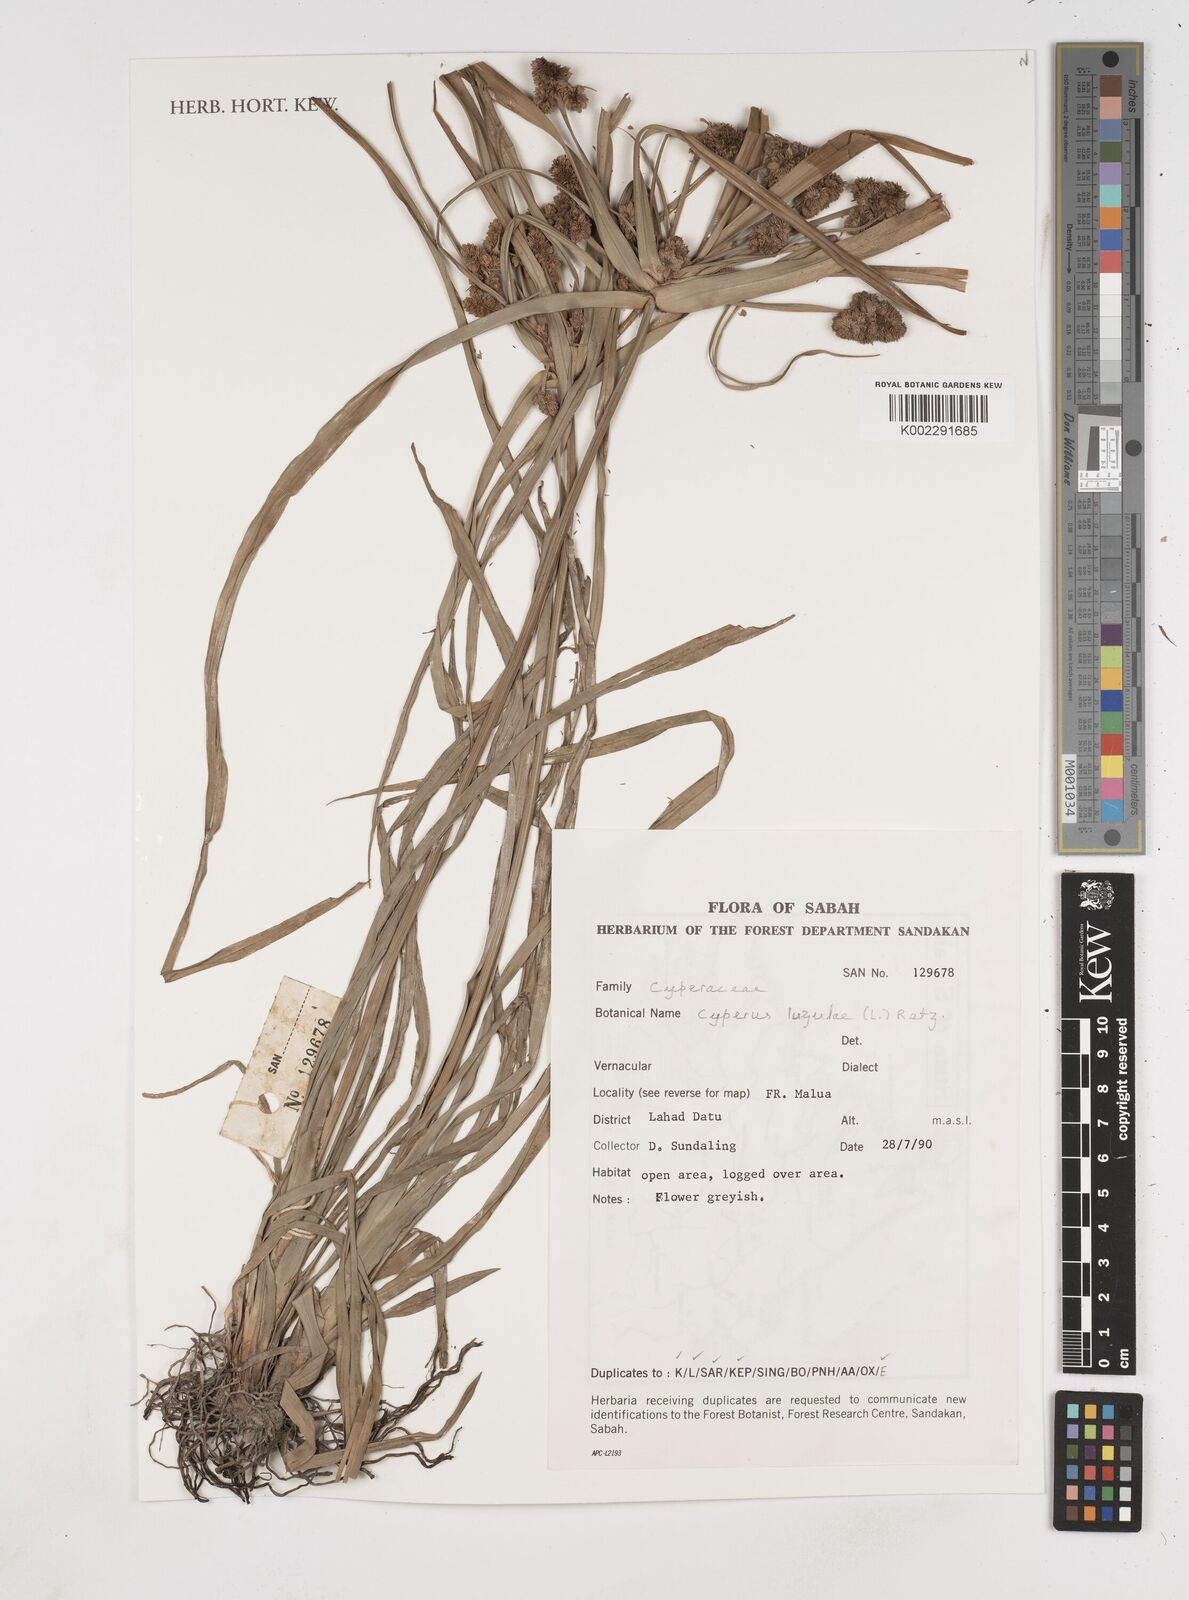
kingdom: Plantae
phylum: Tracheophyta
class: Liliopsida
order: Poales
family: Cyperaceae
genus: Cyperus
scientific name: Cyperus luzulae
